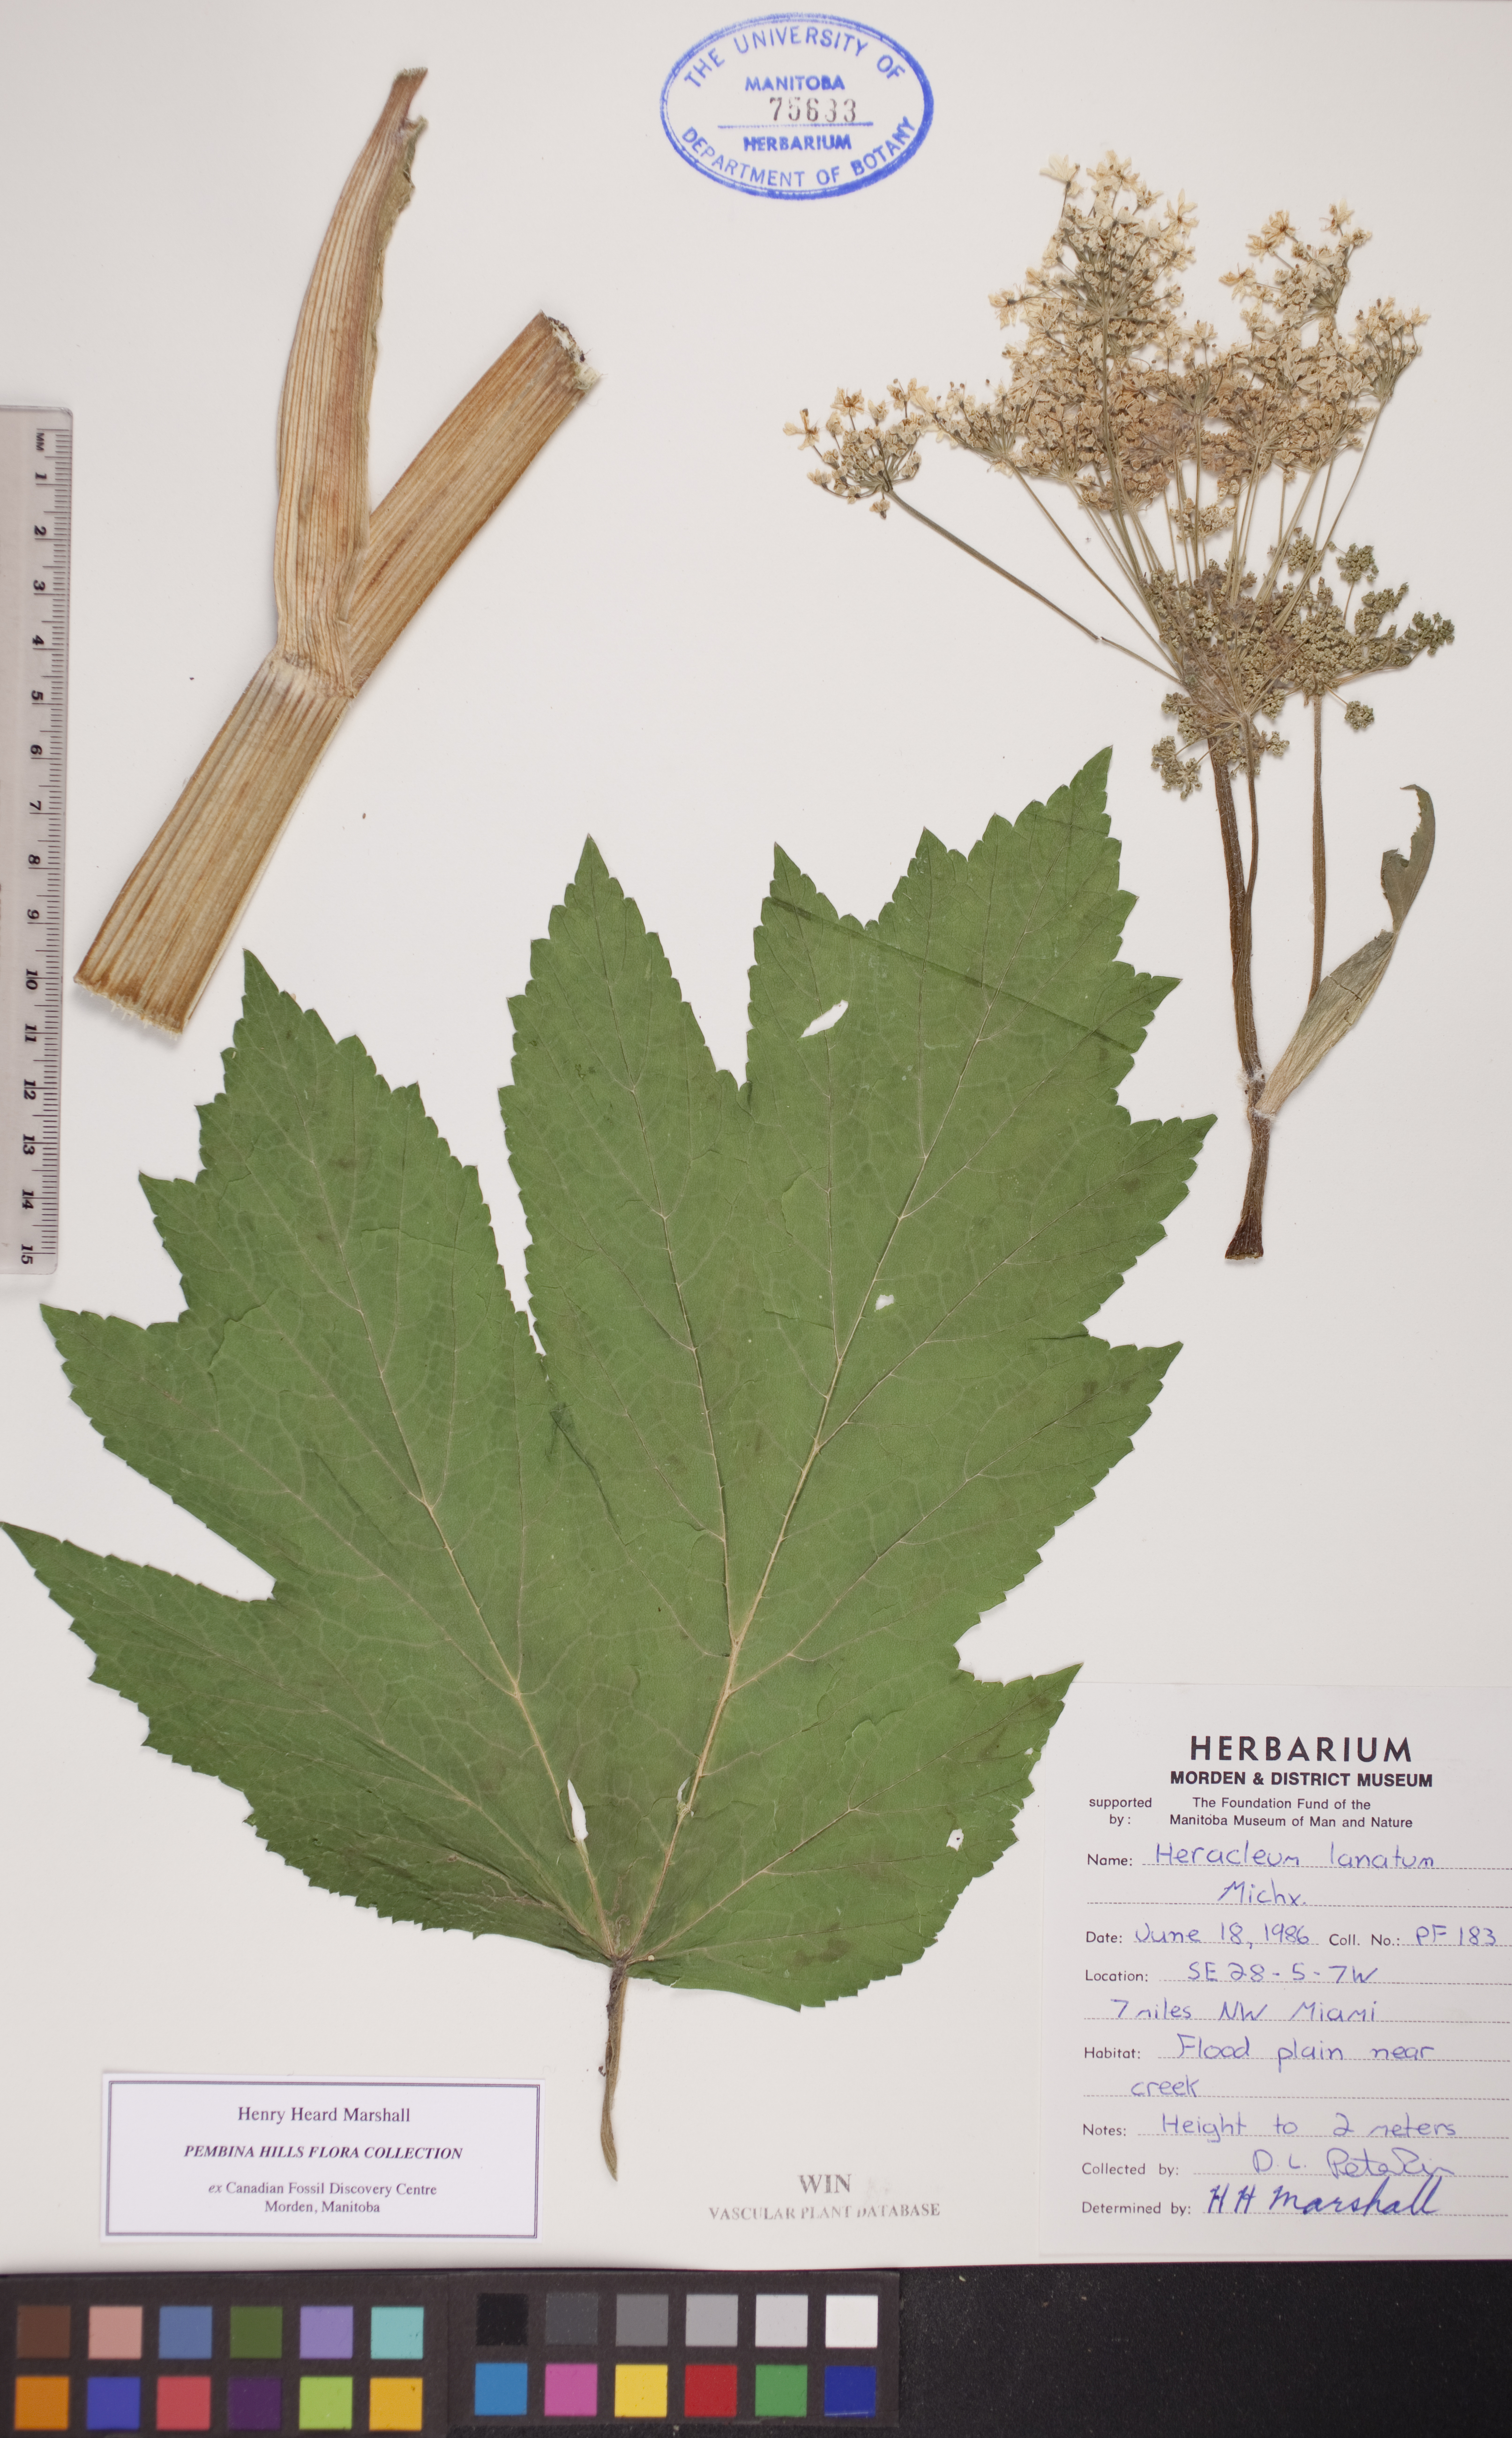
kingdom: Plantae
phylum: Tracheophyta
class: Magnoliopsida
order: Apiales
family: Apiaceae
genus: Heracleum
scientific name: Heracleum maximum
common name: American cow parsnip
